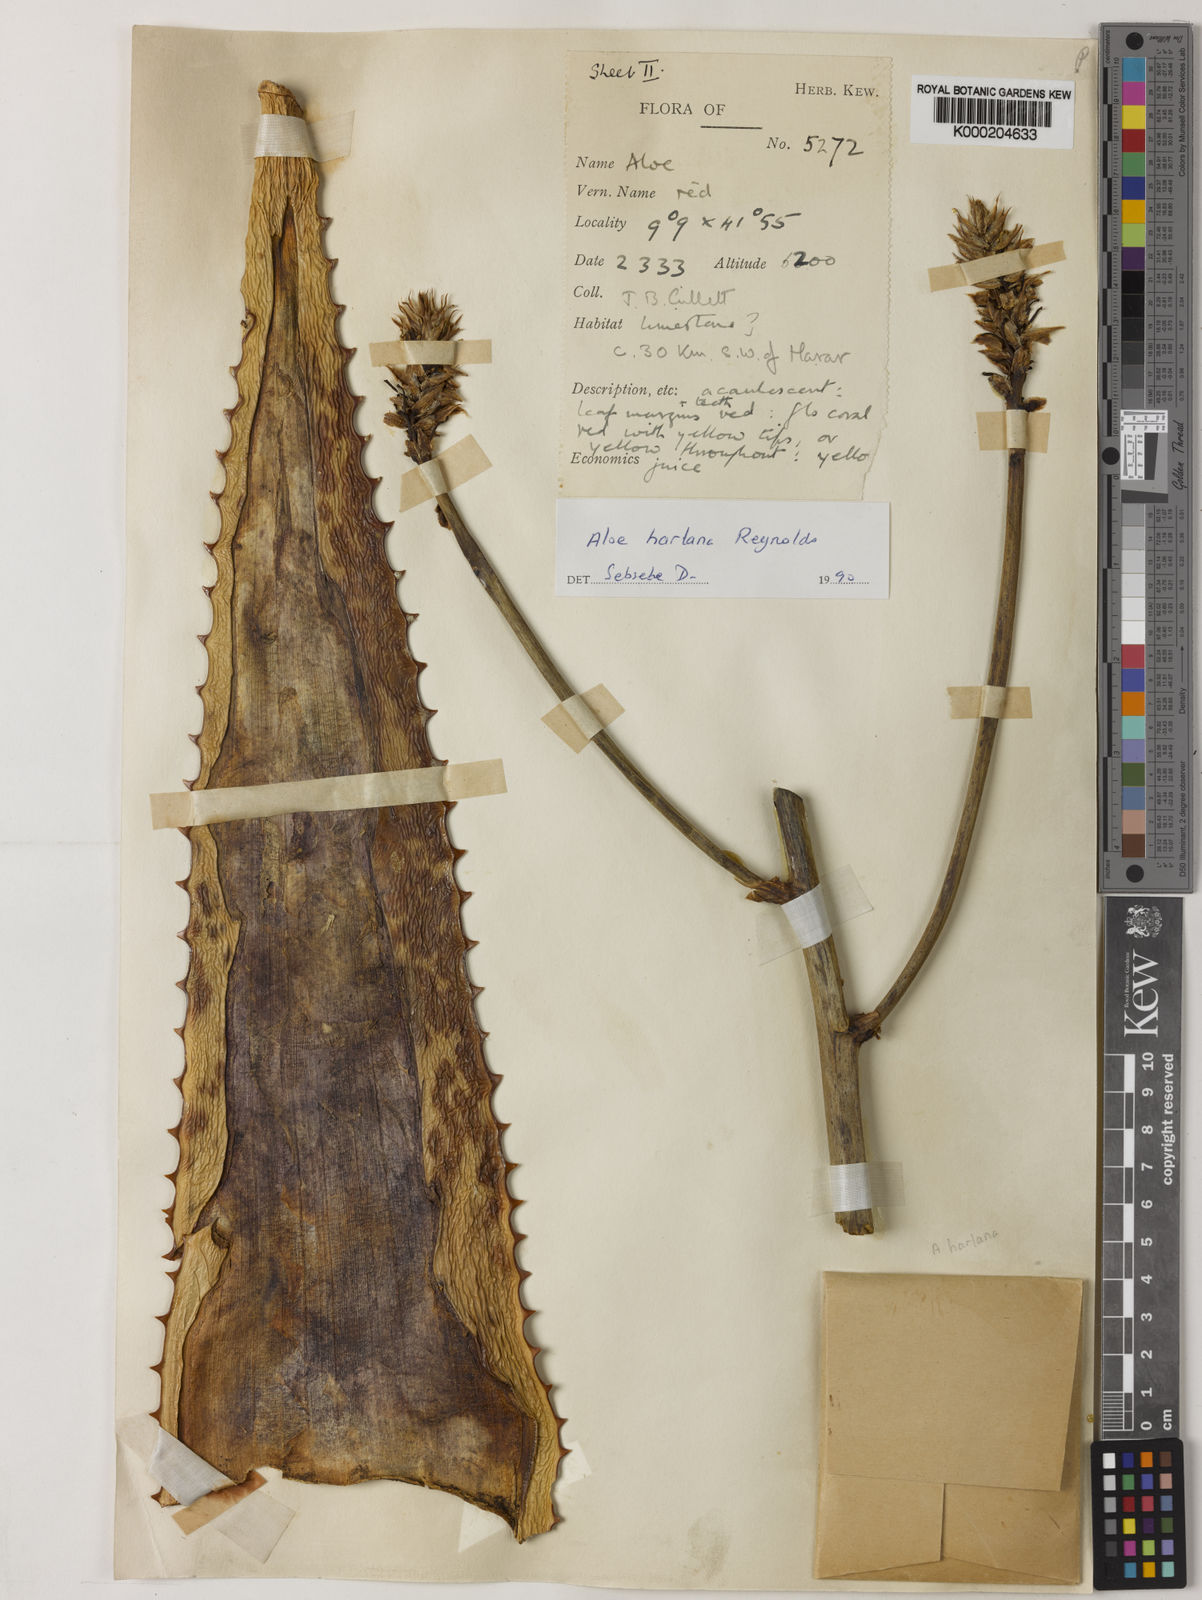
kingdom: Plantae
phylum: Tracheophyta
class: Liliopsida
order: Asparagales
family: Asphodelaceae
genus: Aloe
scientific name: Aloe harlana
